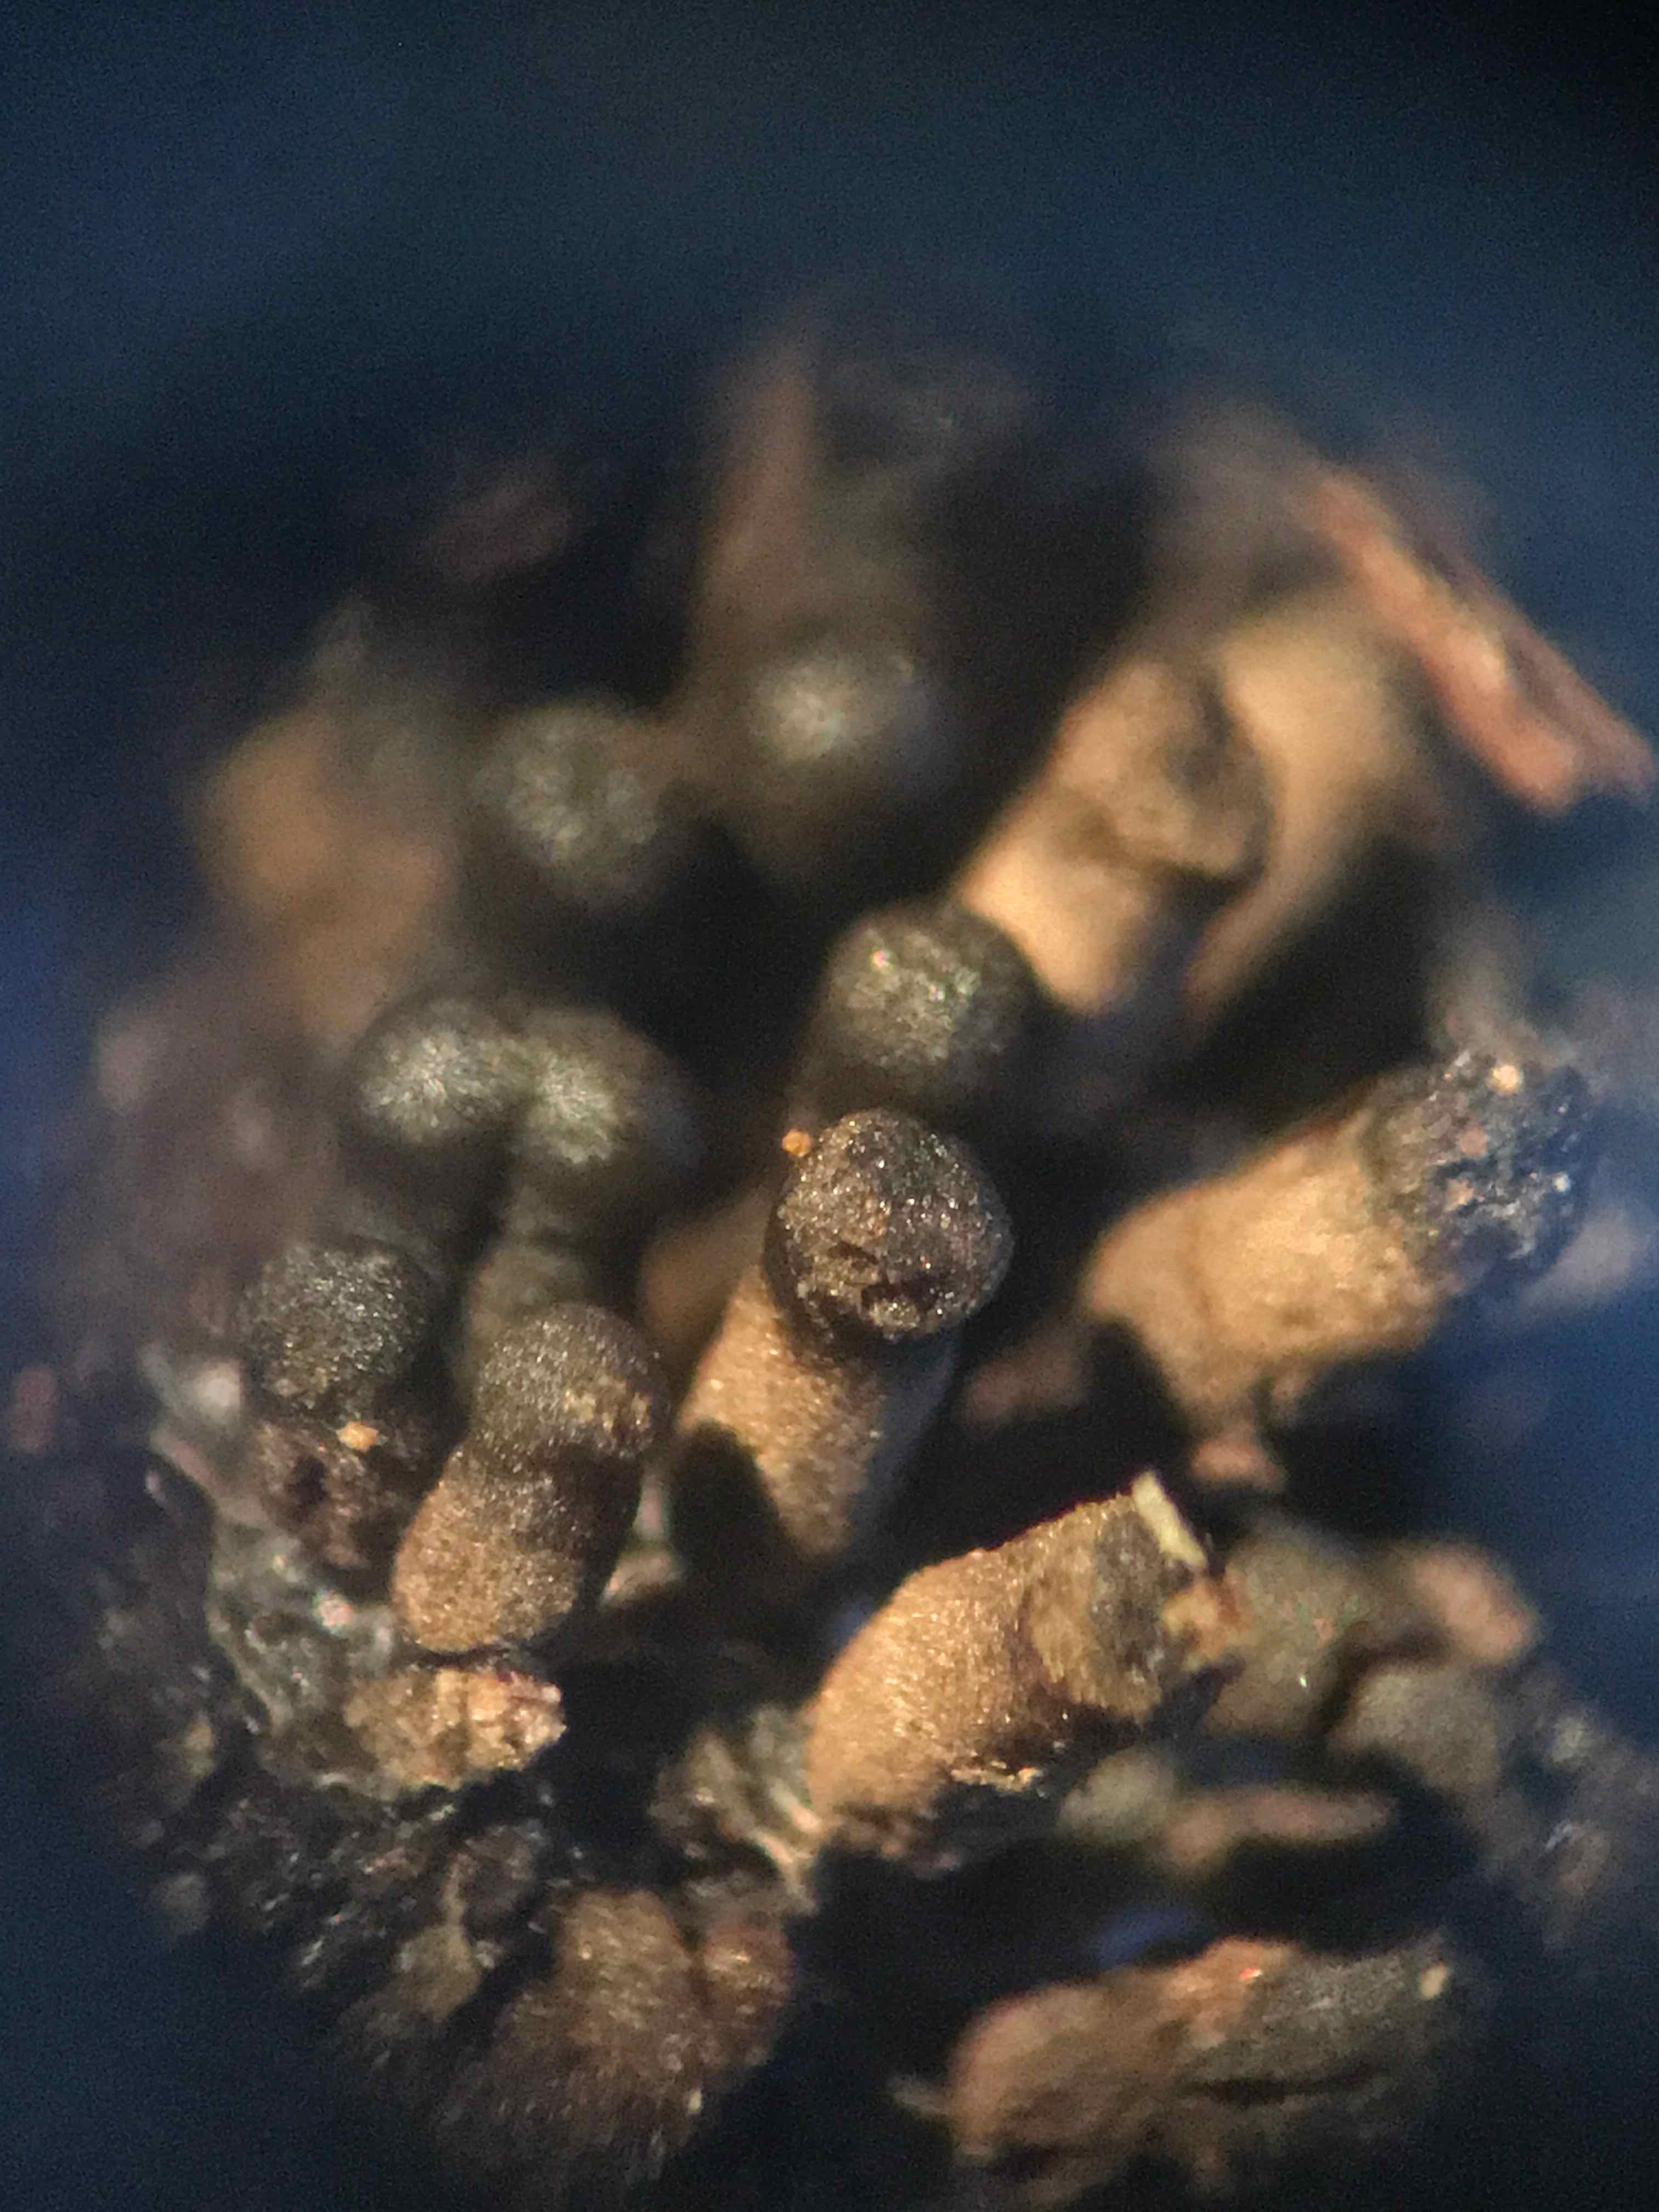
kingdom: Protozoa
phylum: Mycetozoa
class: Myxomycetes
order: Stemonitidales
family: Stemonitidaceae
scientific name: Stemonitidaceae
